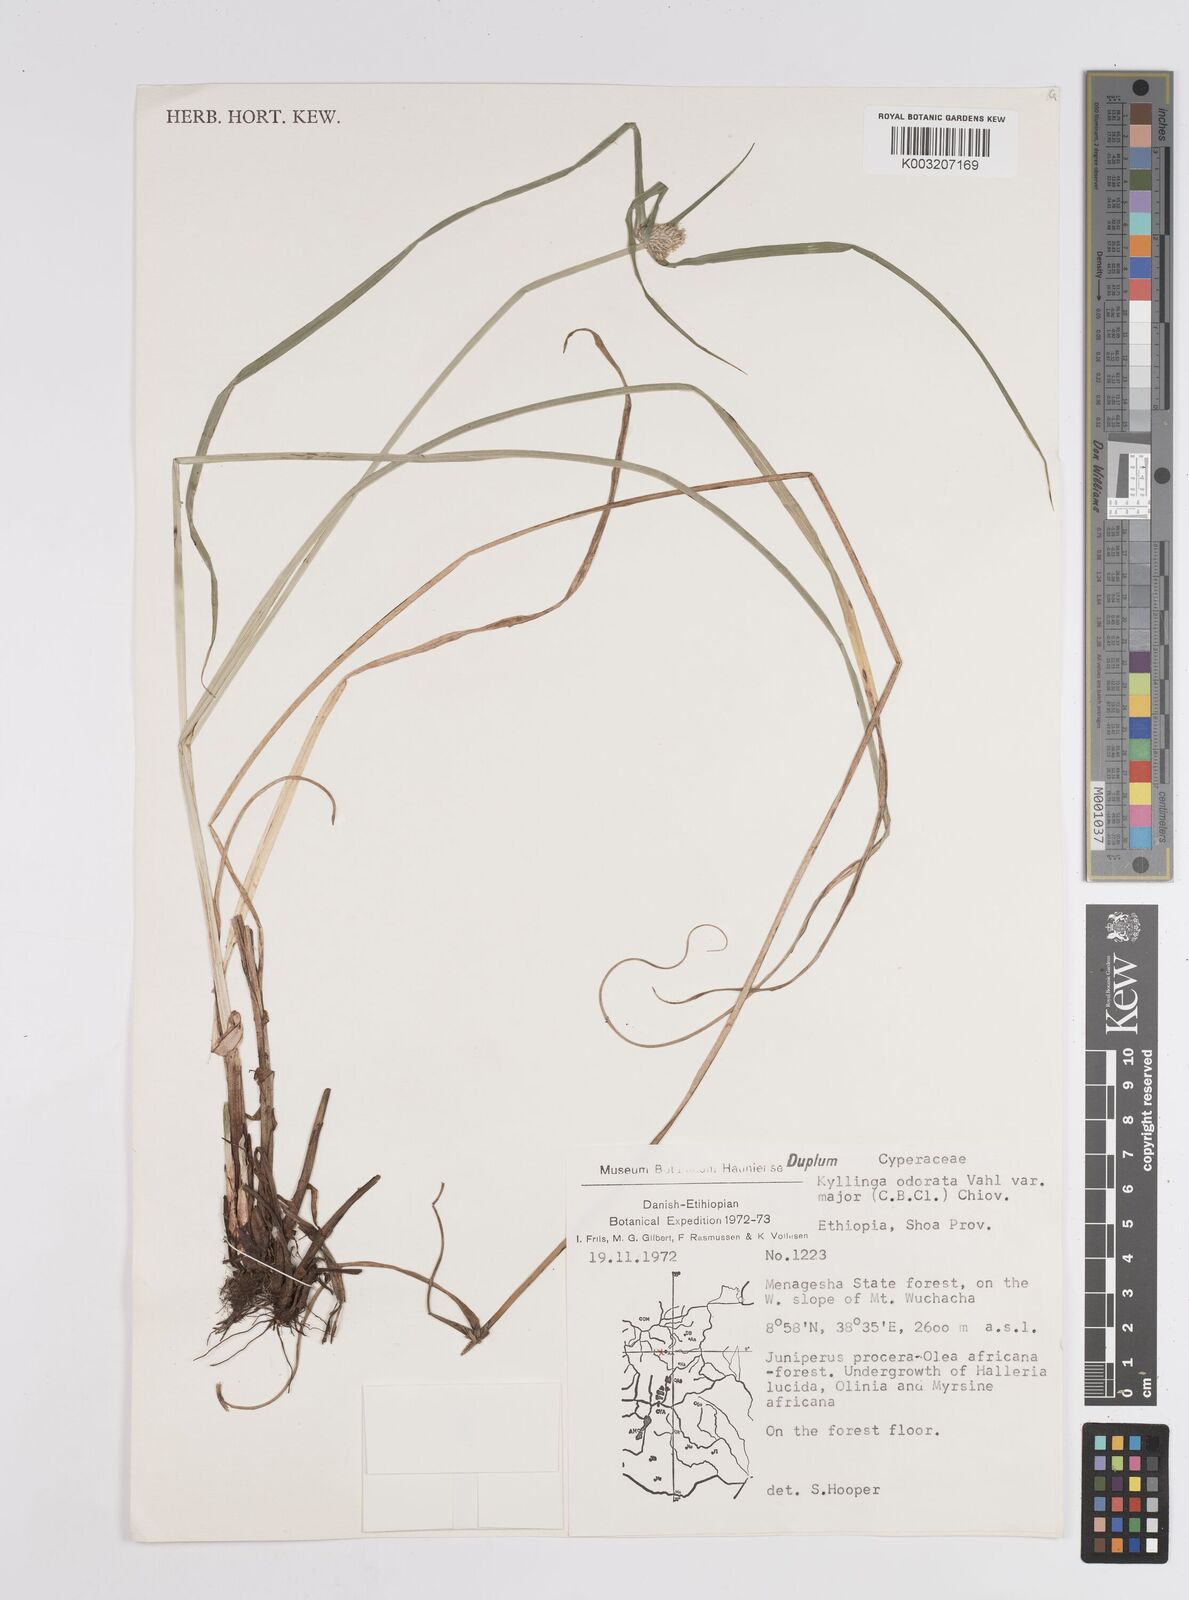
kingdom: Plantae
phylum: Tracheophyta
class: Liliopsida
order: Poales
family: Cyperaceae
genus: Cyperus
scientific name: Cyperus
